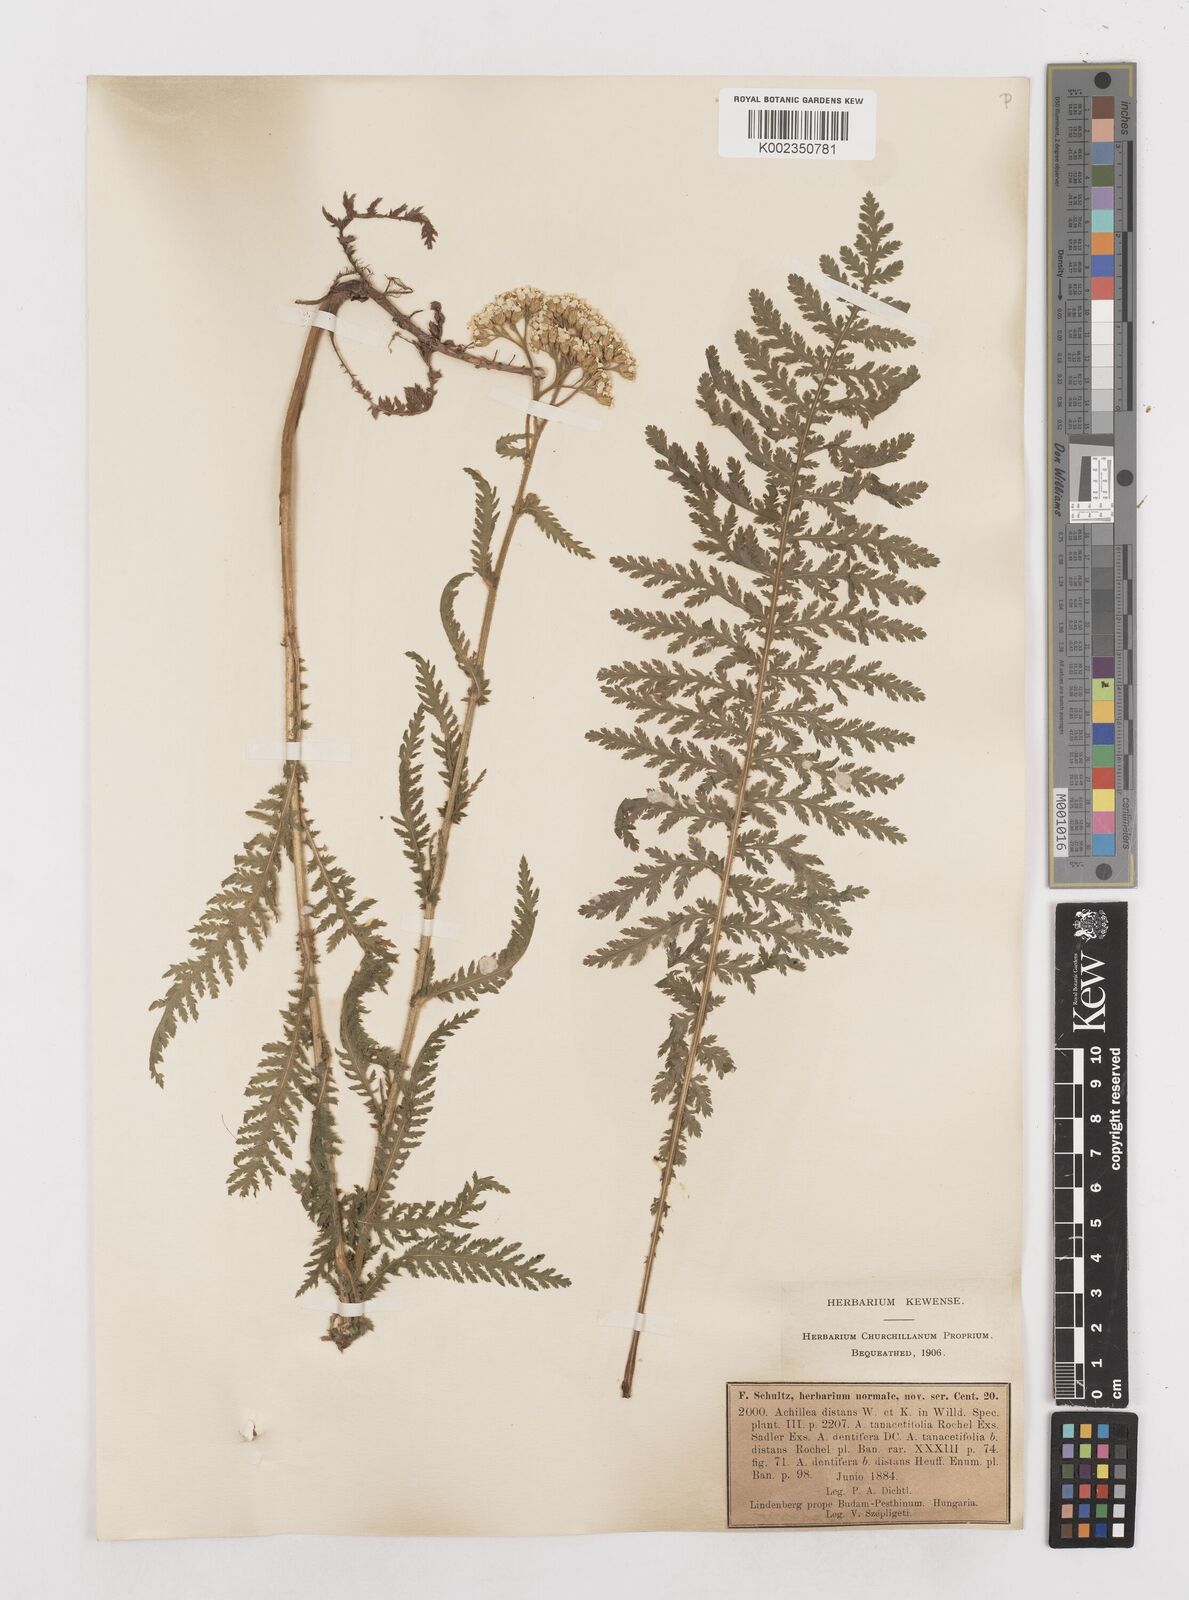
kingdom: Plantae
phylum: Tracheophyta
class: Magnoliopsida
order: Asterales
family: Asteraceae
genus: Achillea
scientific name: Achillea distans
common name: Tall yarrow
